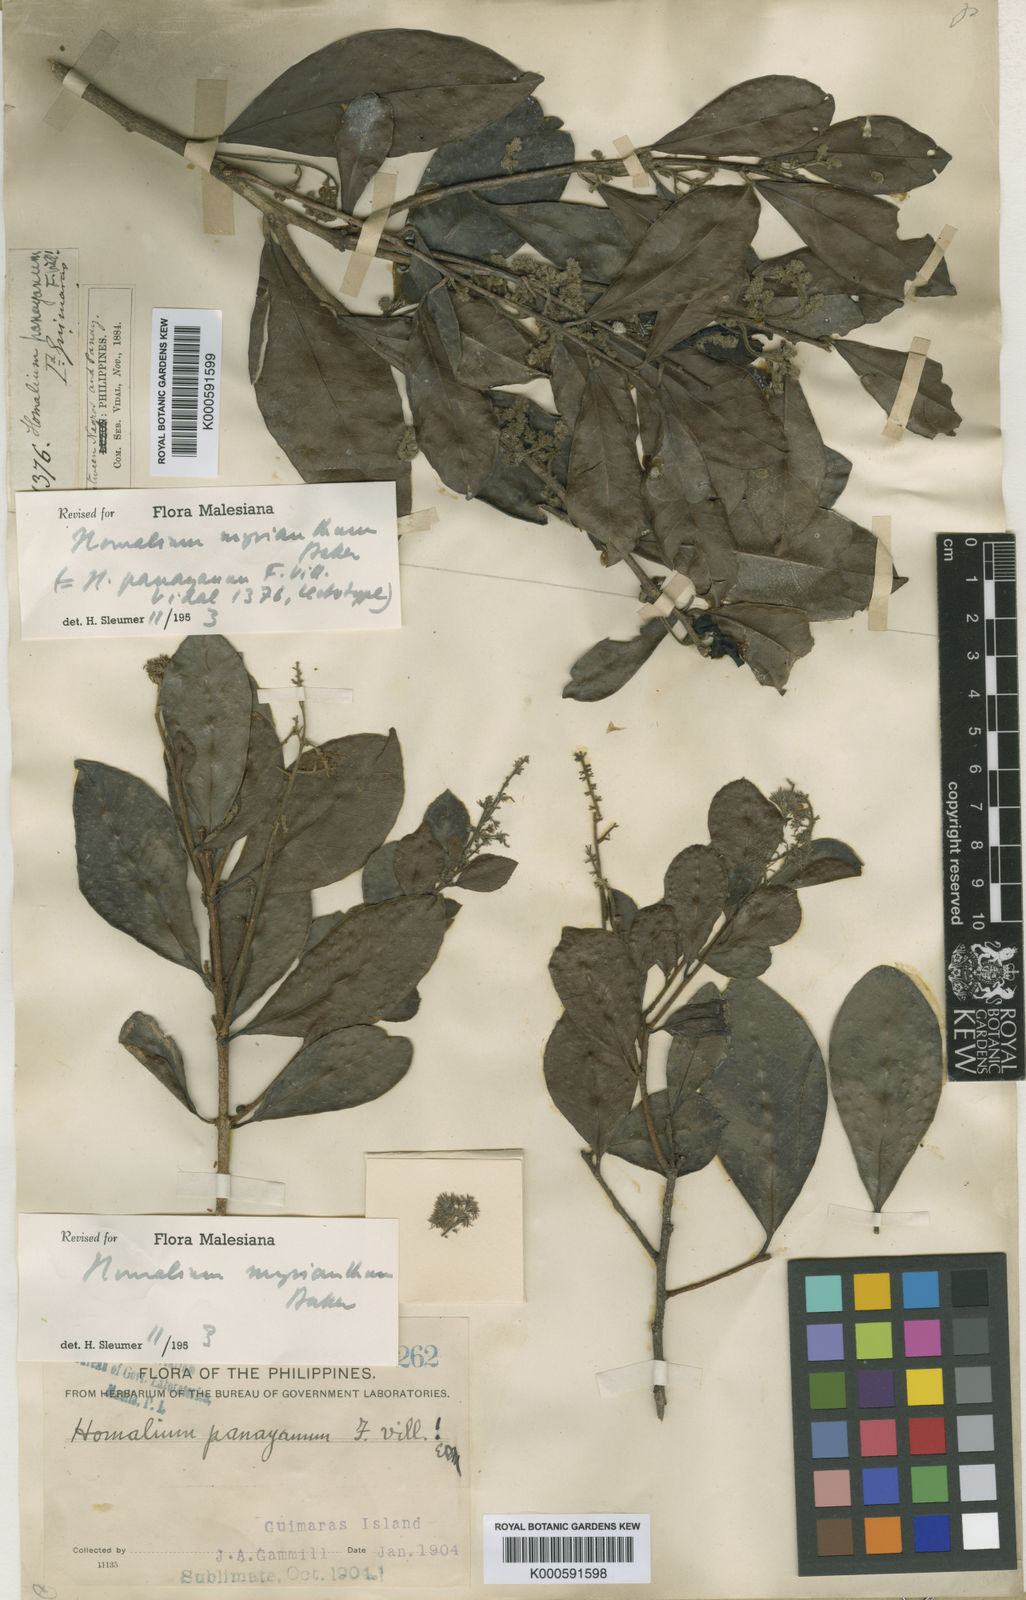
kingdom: Plantae
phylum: Tracheophyta
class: Magnoliopsida
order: Malpighiales
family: Salicaceae
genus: Homalium
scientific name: Homalium panayanum
